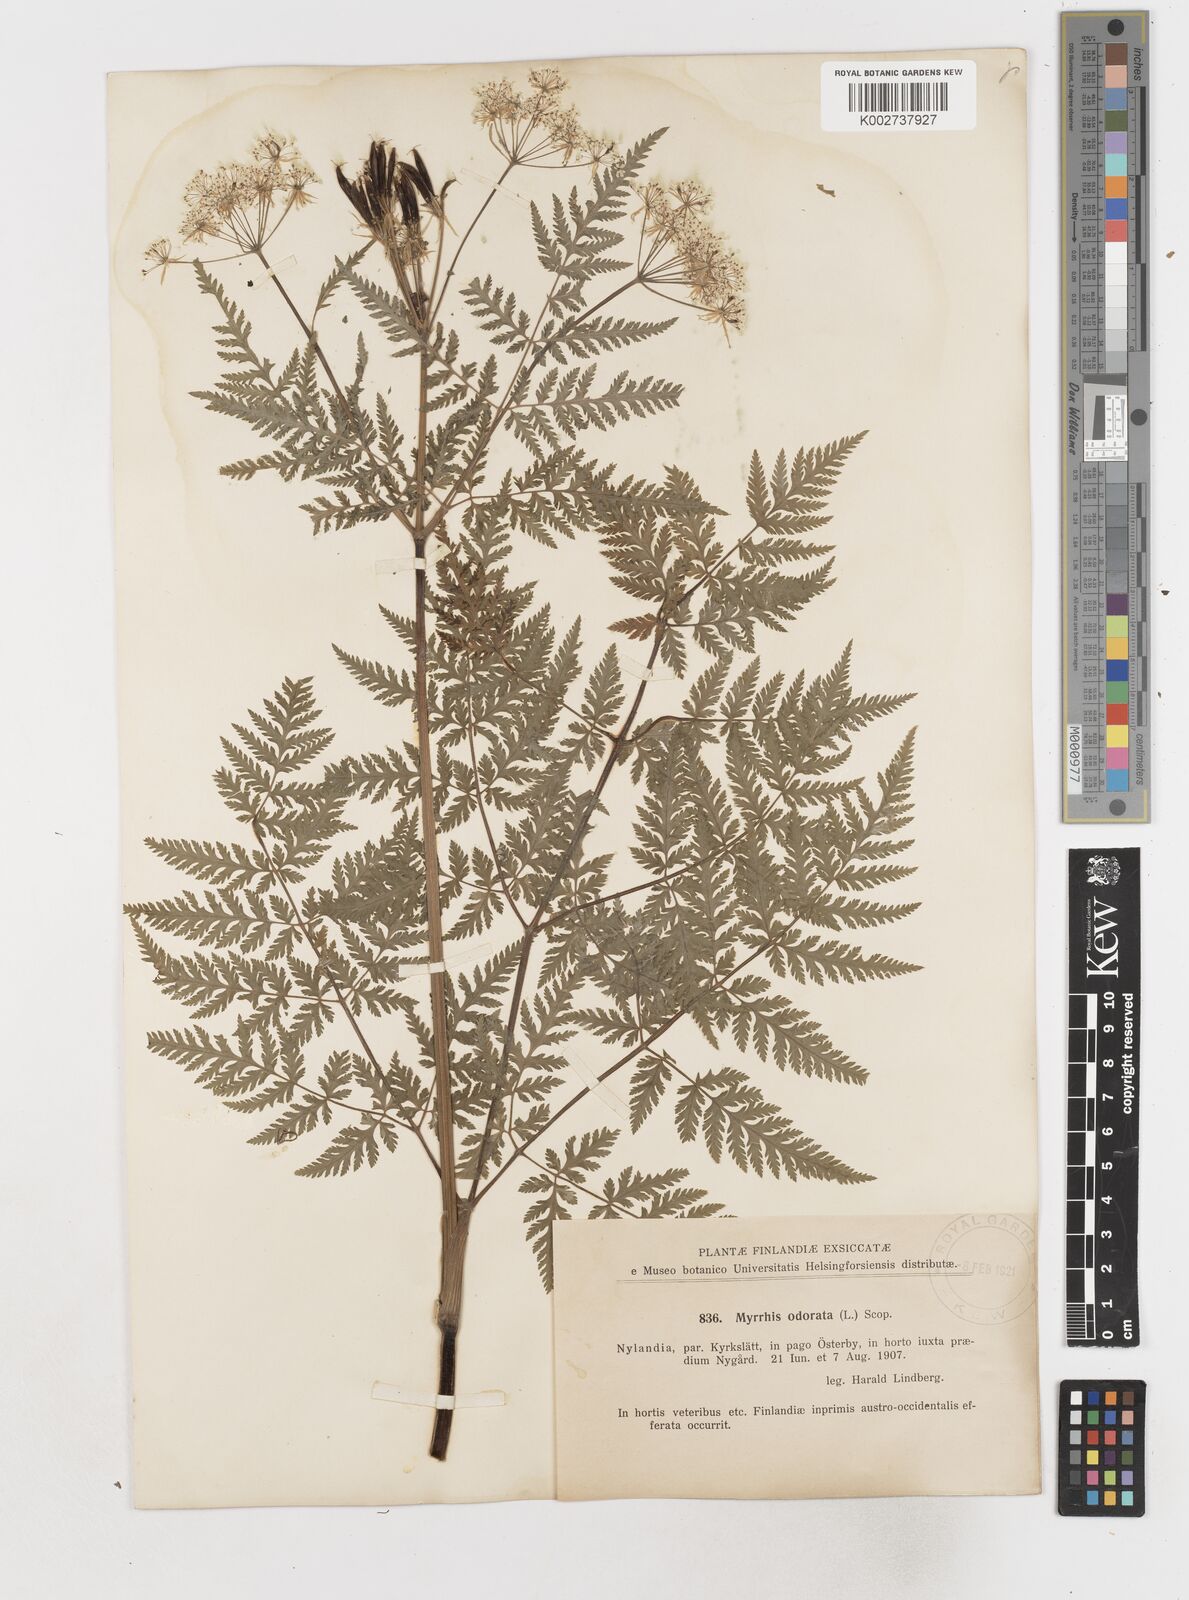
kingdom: Plantae
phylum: Tracheophyta
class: Magnoliopsida
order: Apiales
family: Apiaceae
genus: Myrrhis
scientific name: Myrrhis odorata
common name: Sweet cicely
